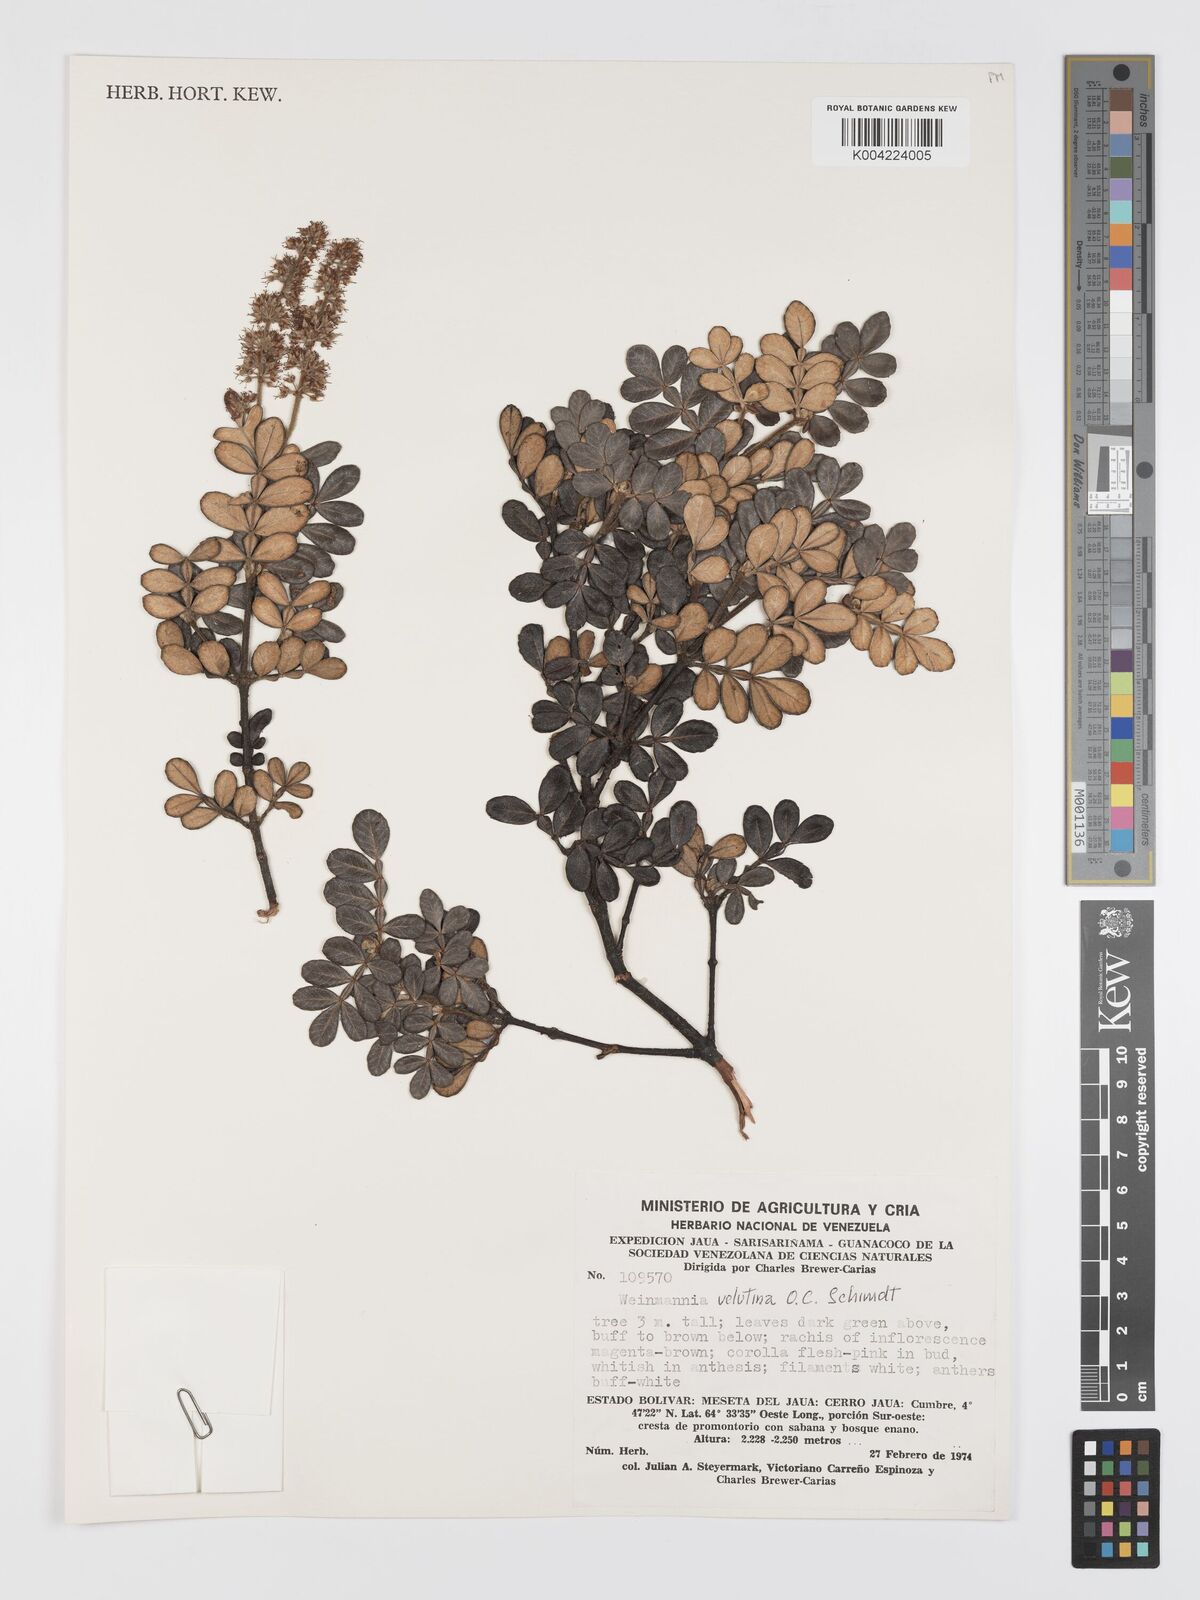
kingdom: Plantae
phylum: Tracheophyta
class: Magnoliopsida
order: Oxalidales
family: Cunoniaceae
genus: Weinmannia
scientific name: Weinmannia velutina
